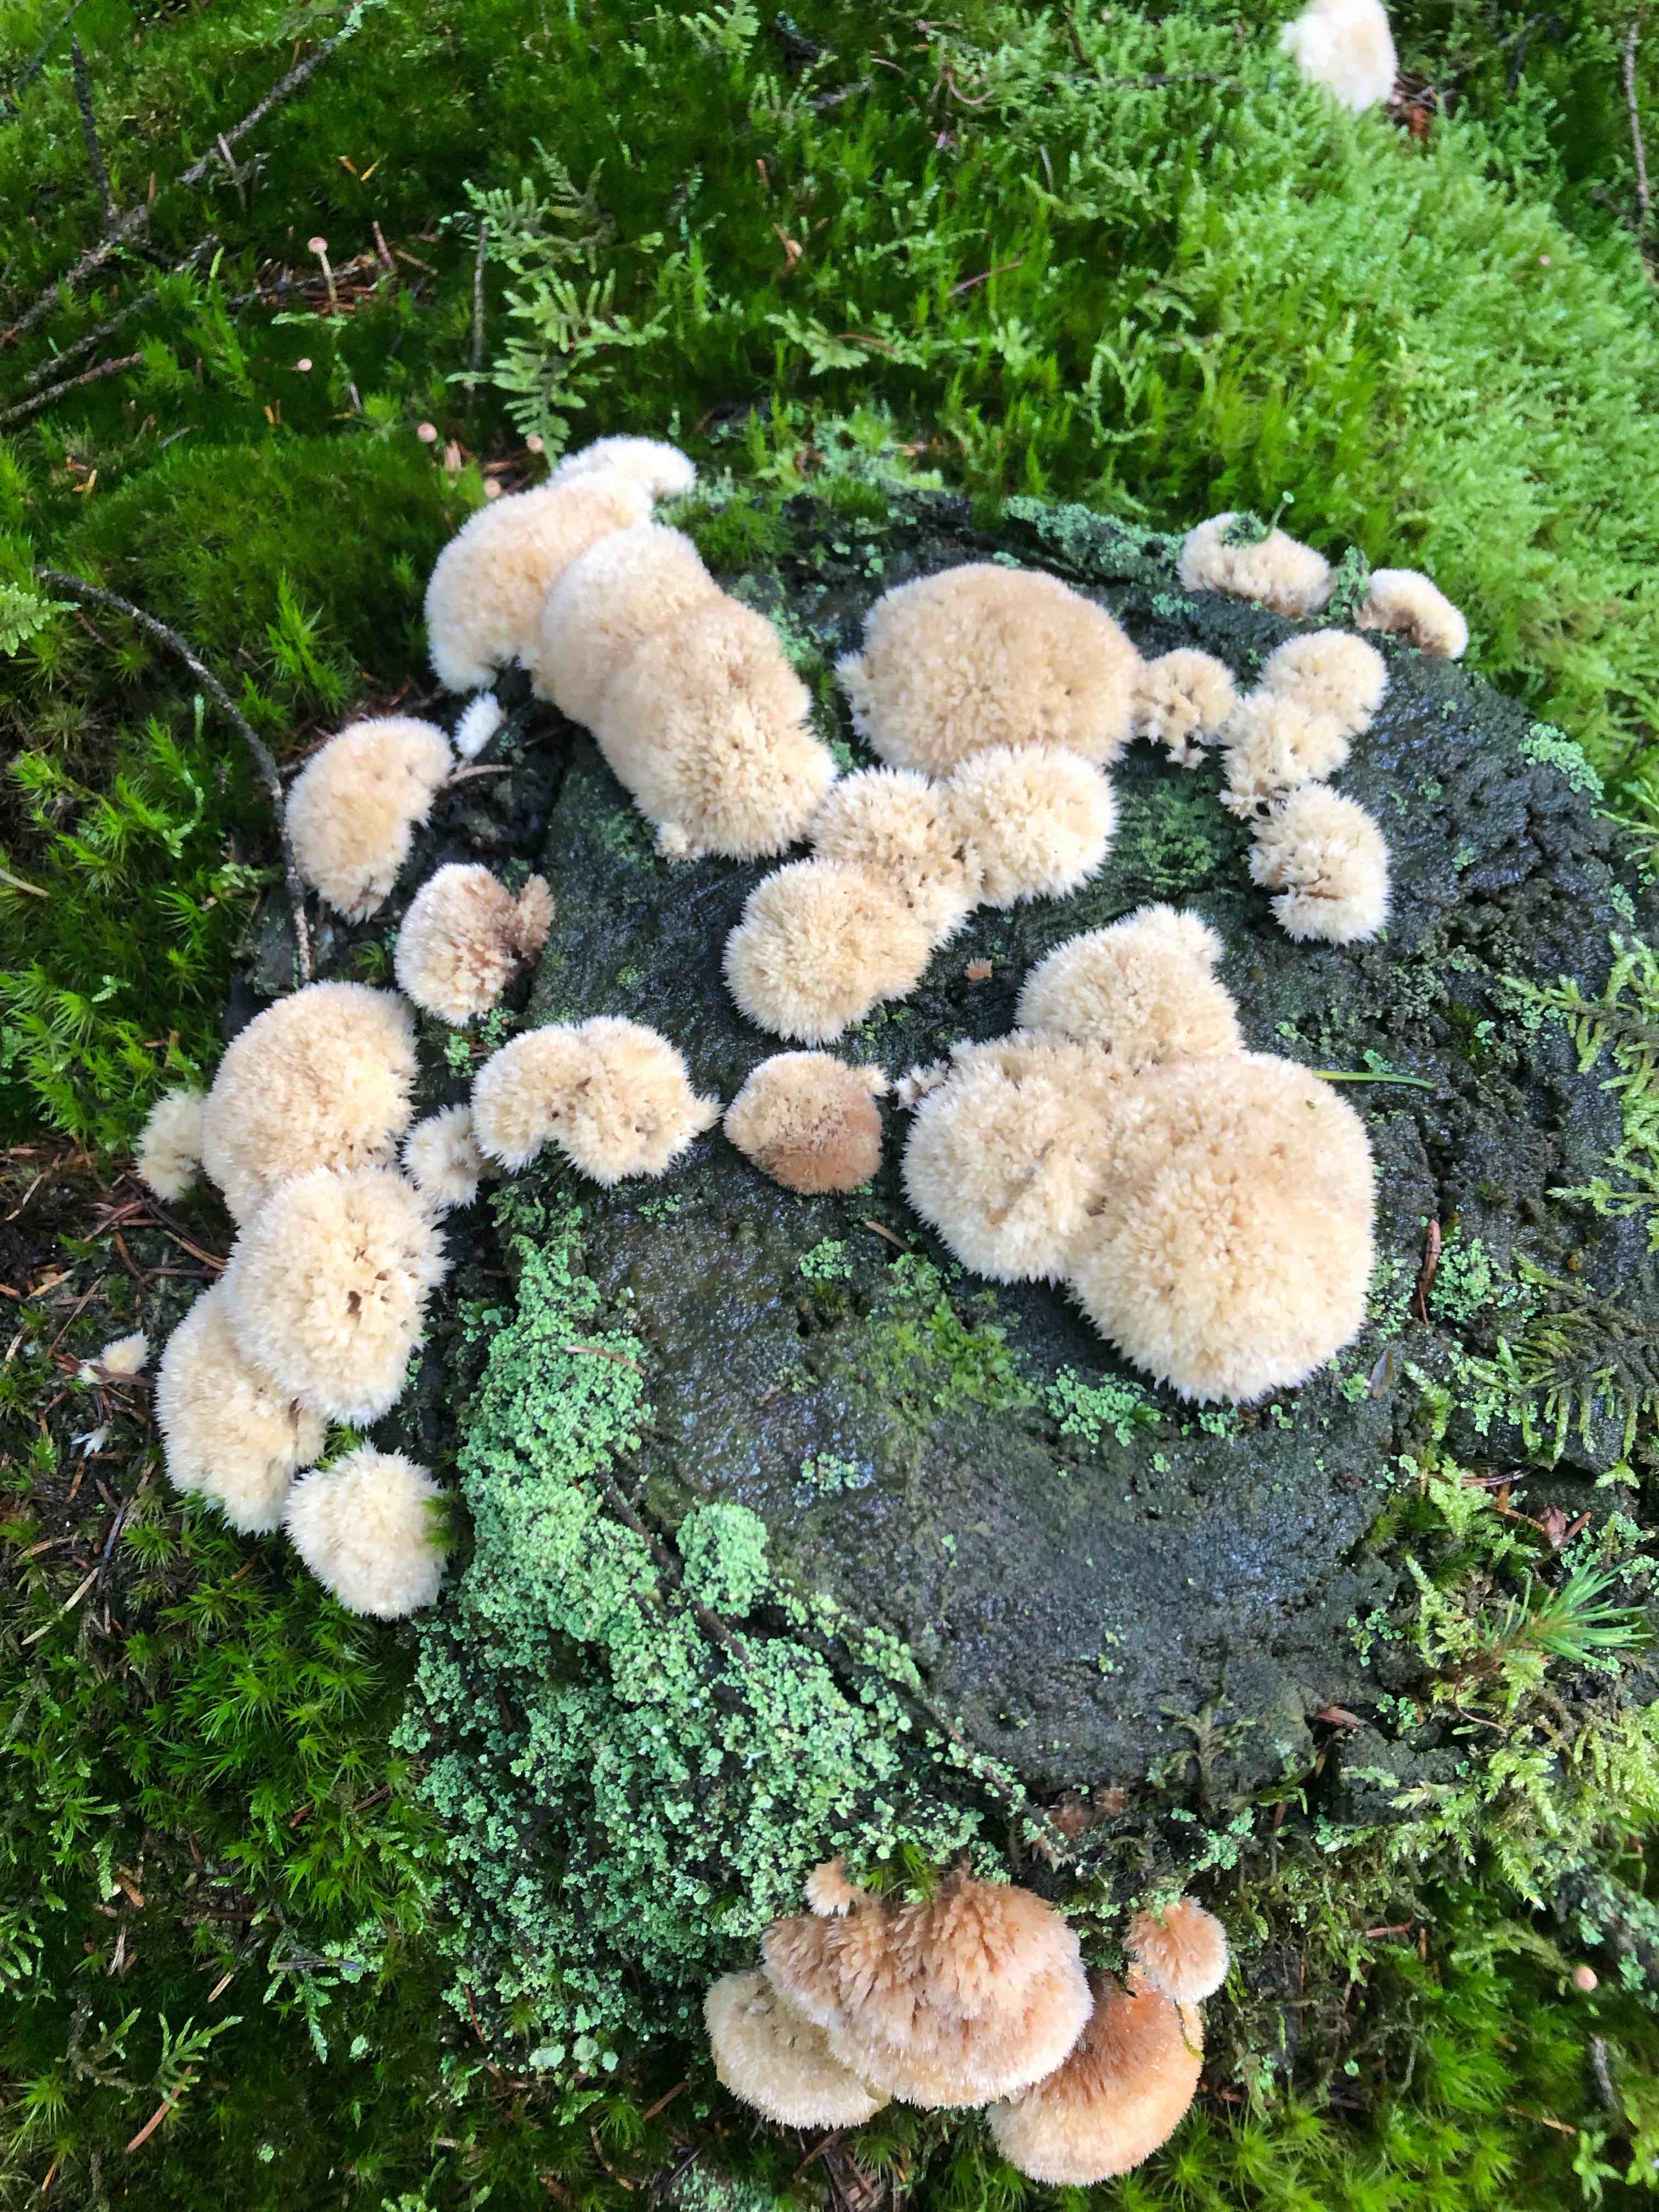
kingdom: Fungi
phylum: Basidiomycota
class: Agaricomycetes
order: Polyporales
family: Dacryobolaceae
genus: Postia
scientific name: Postia ptychogaster
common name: støvende kødporesvamp
